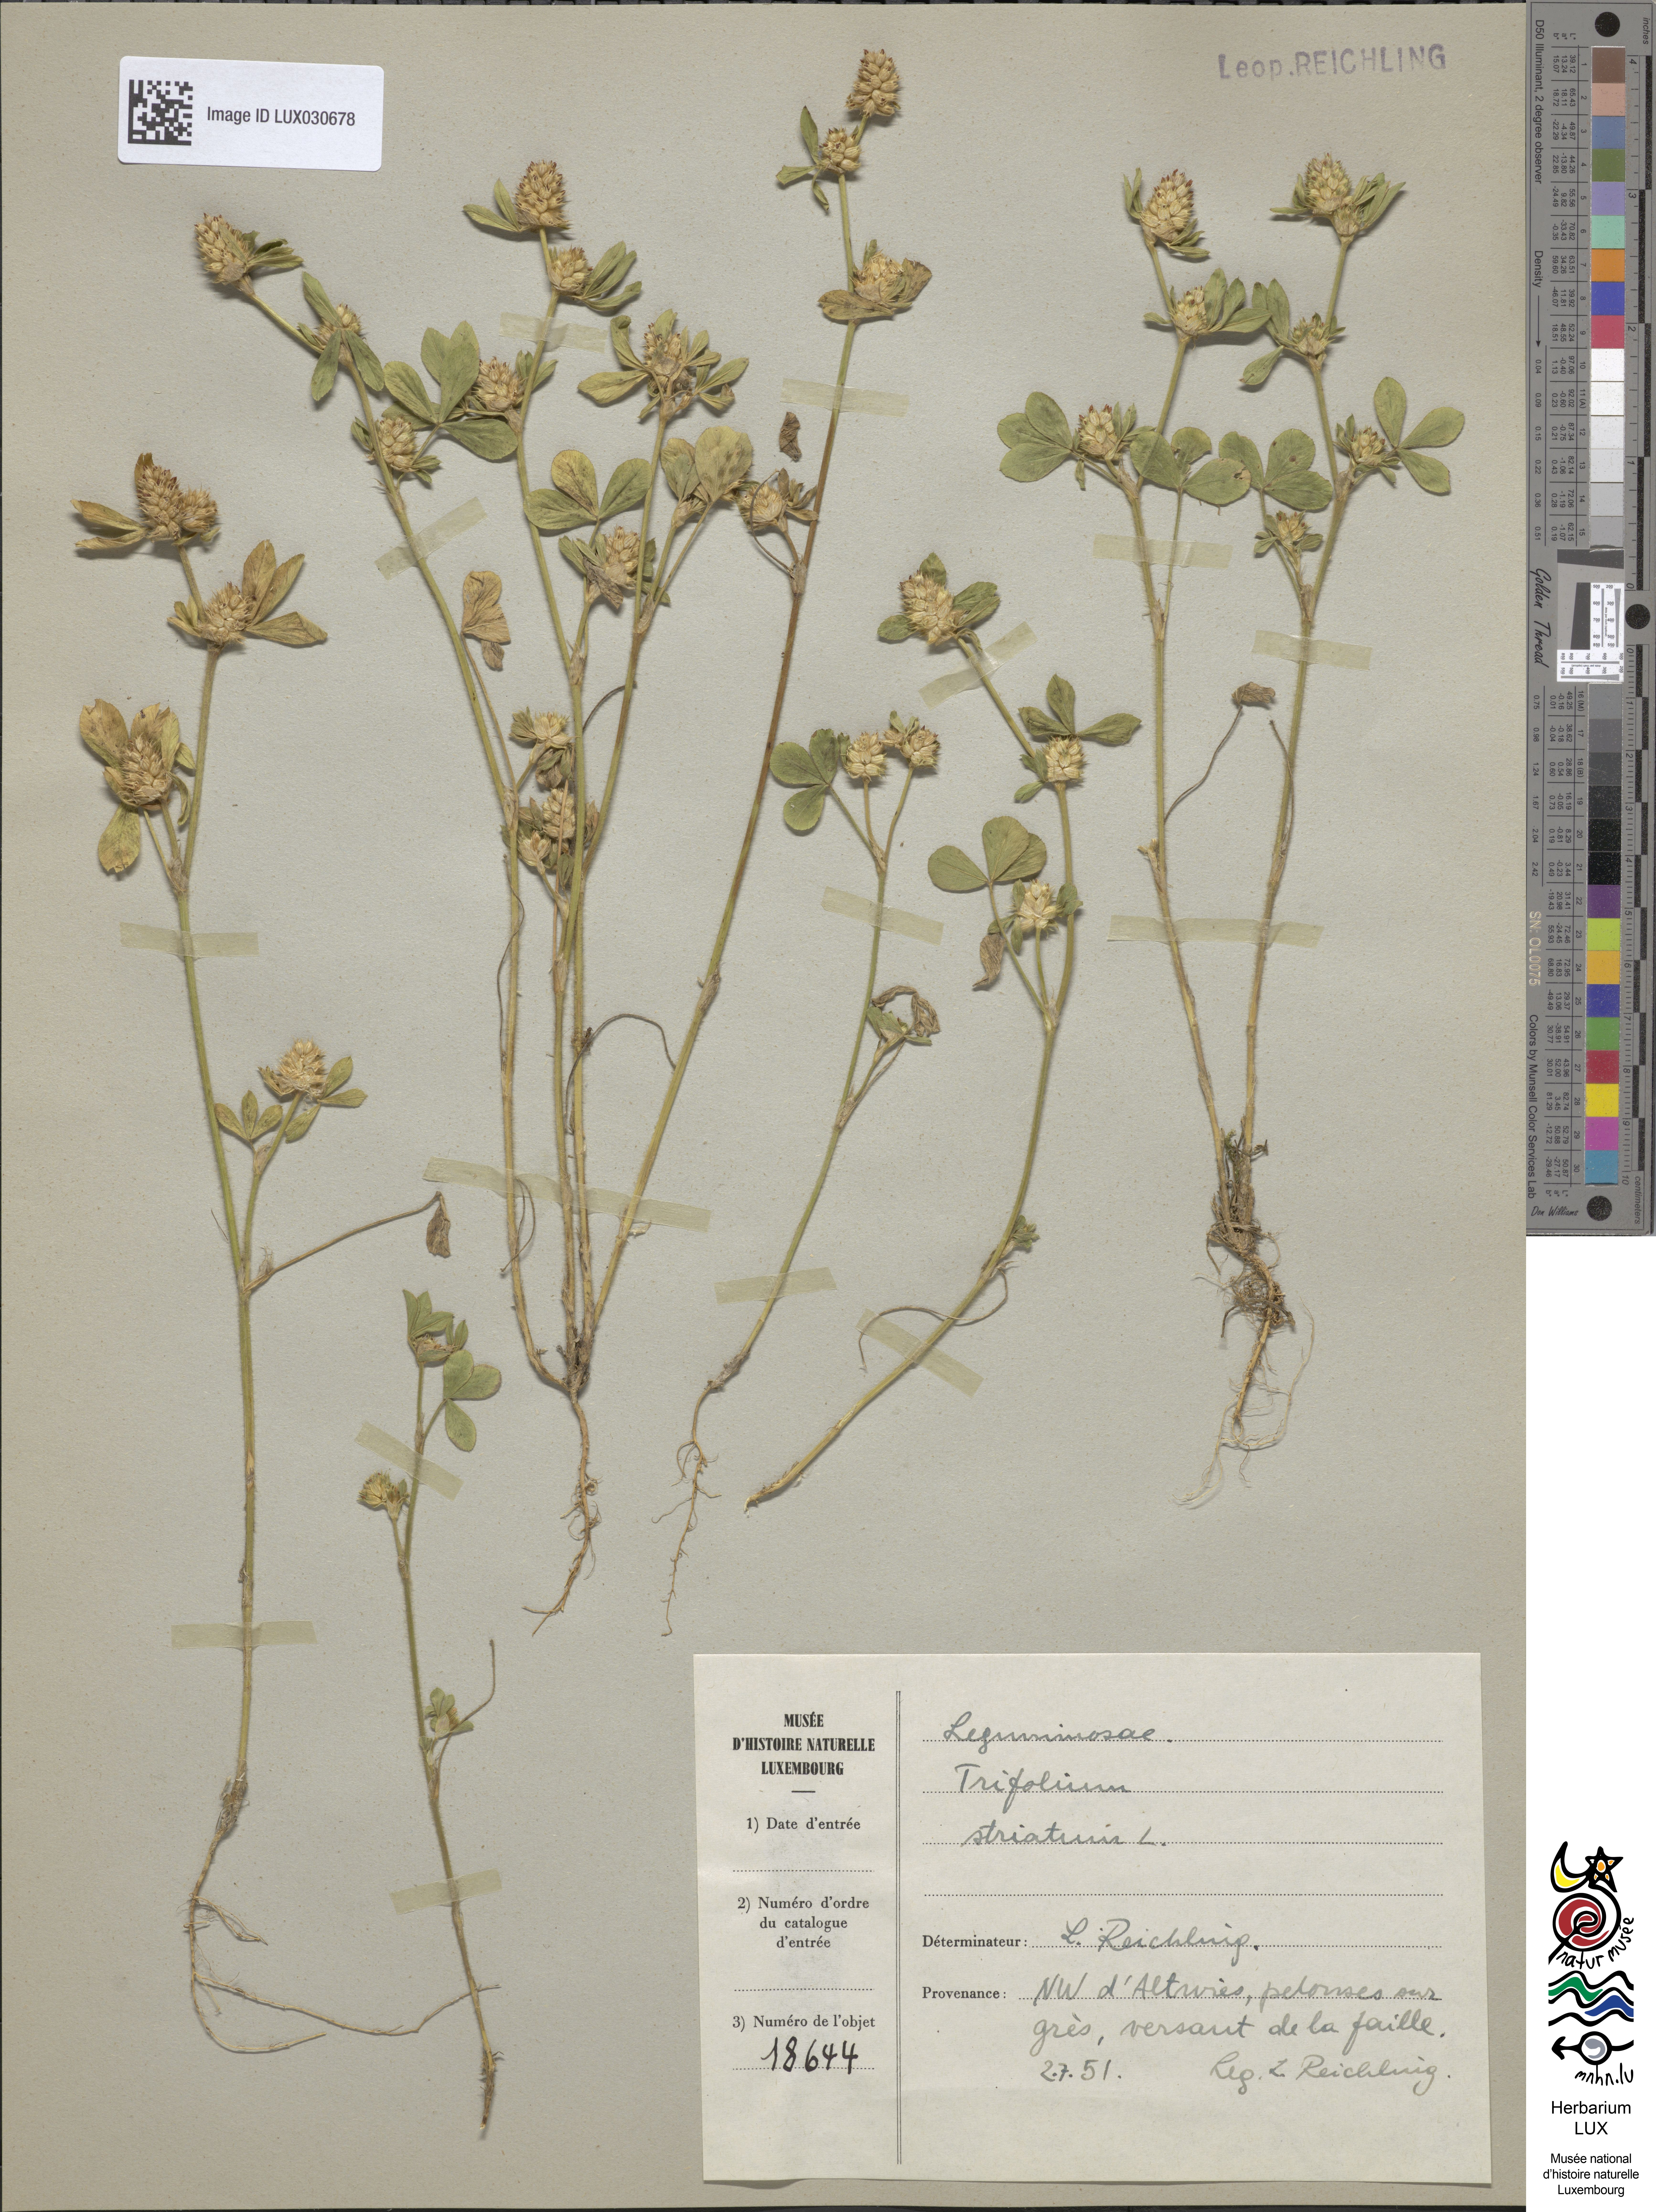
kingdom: Plantae
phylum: Tracheophyta
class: Magnoliopsida
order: Fabales
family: Fabaceae
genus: Trifolium
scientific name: Trifolium striatum
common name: Knotted clover
